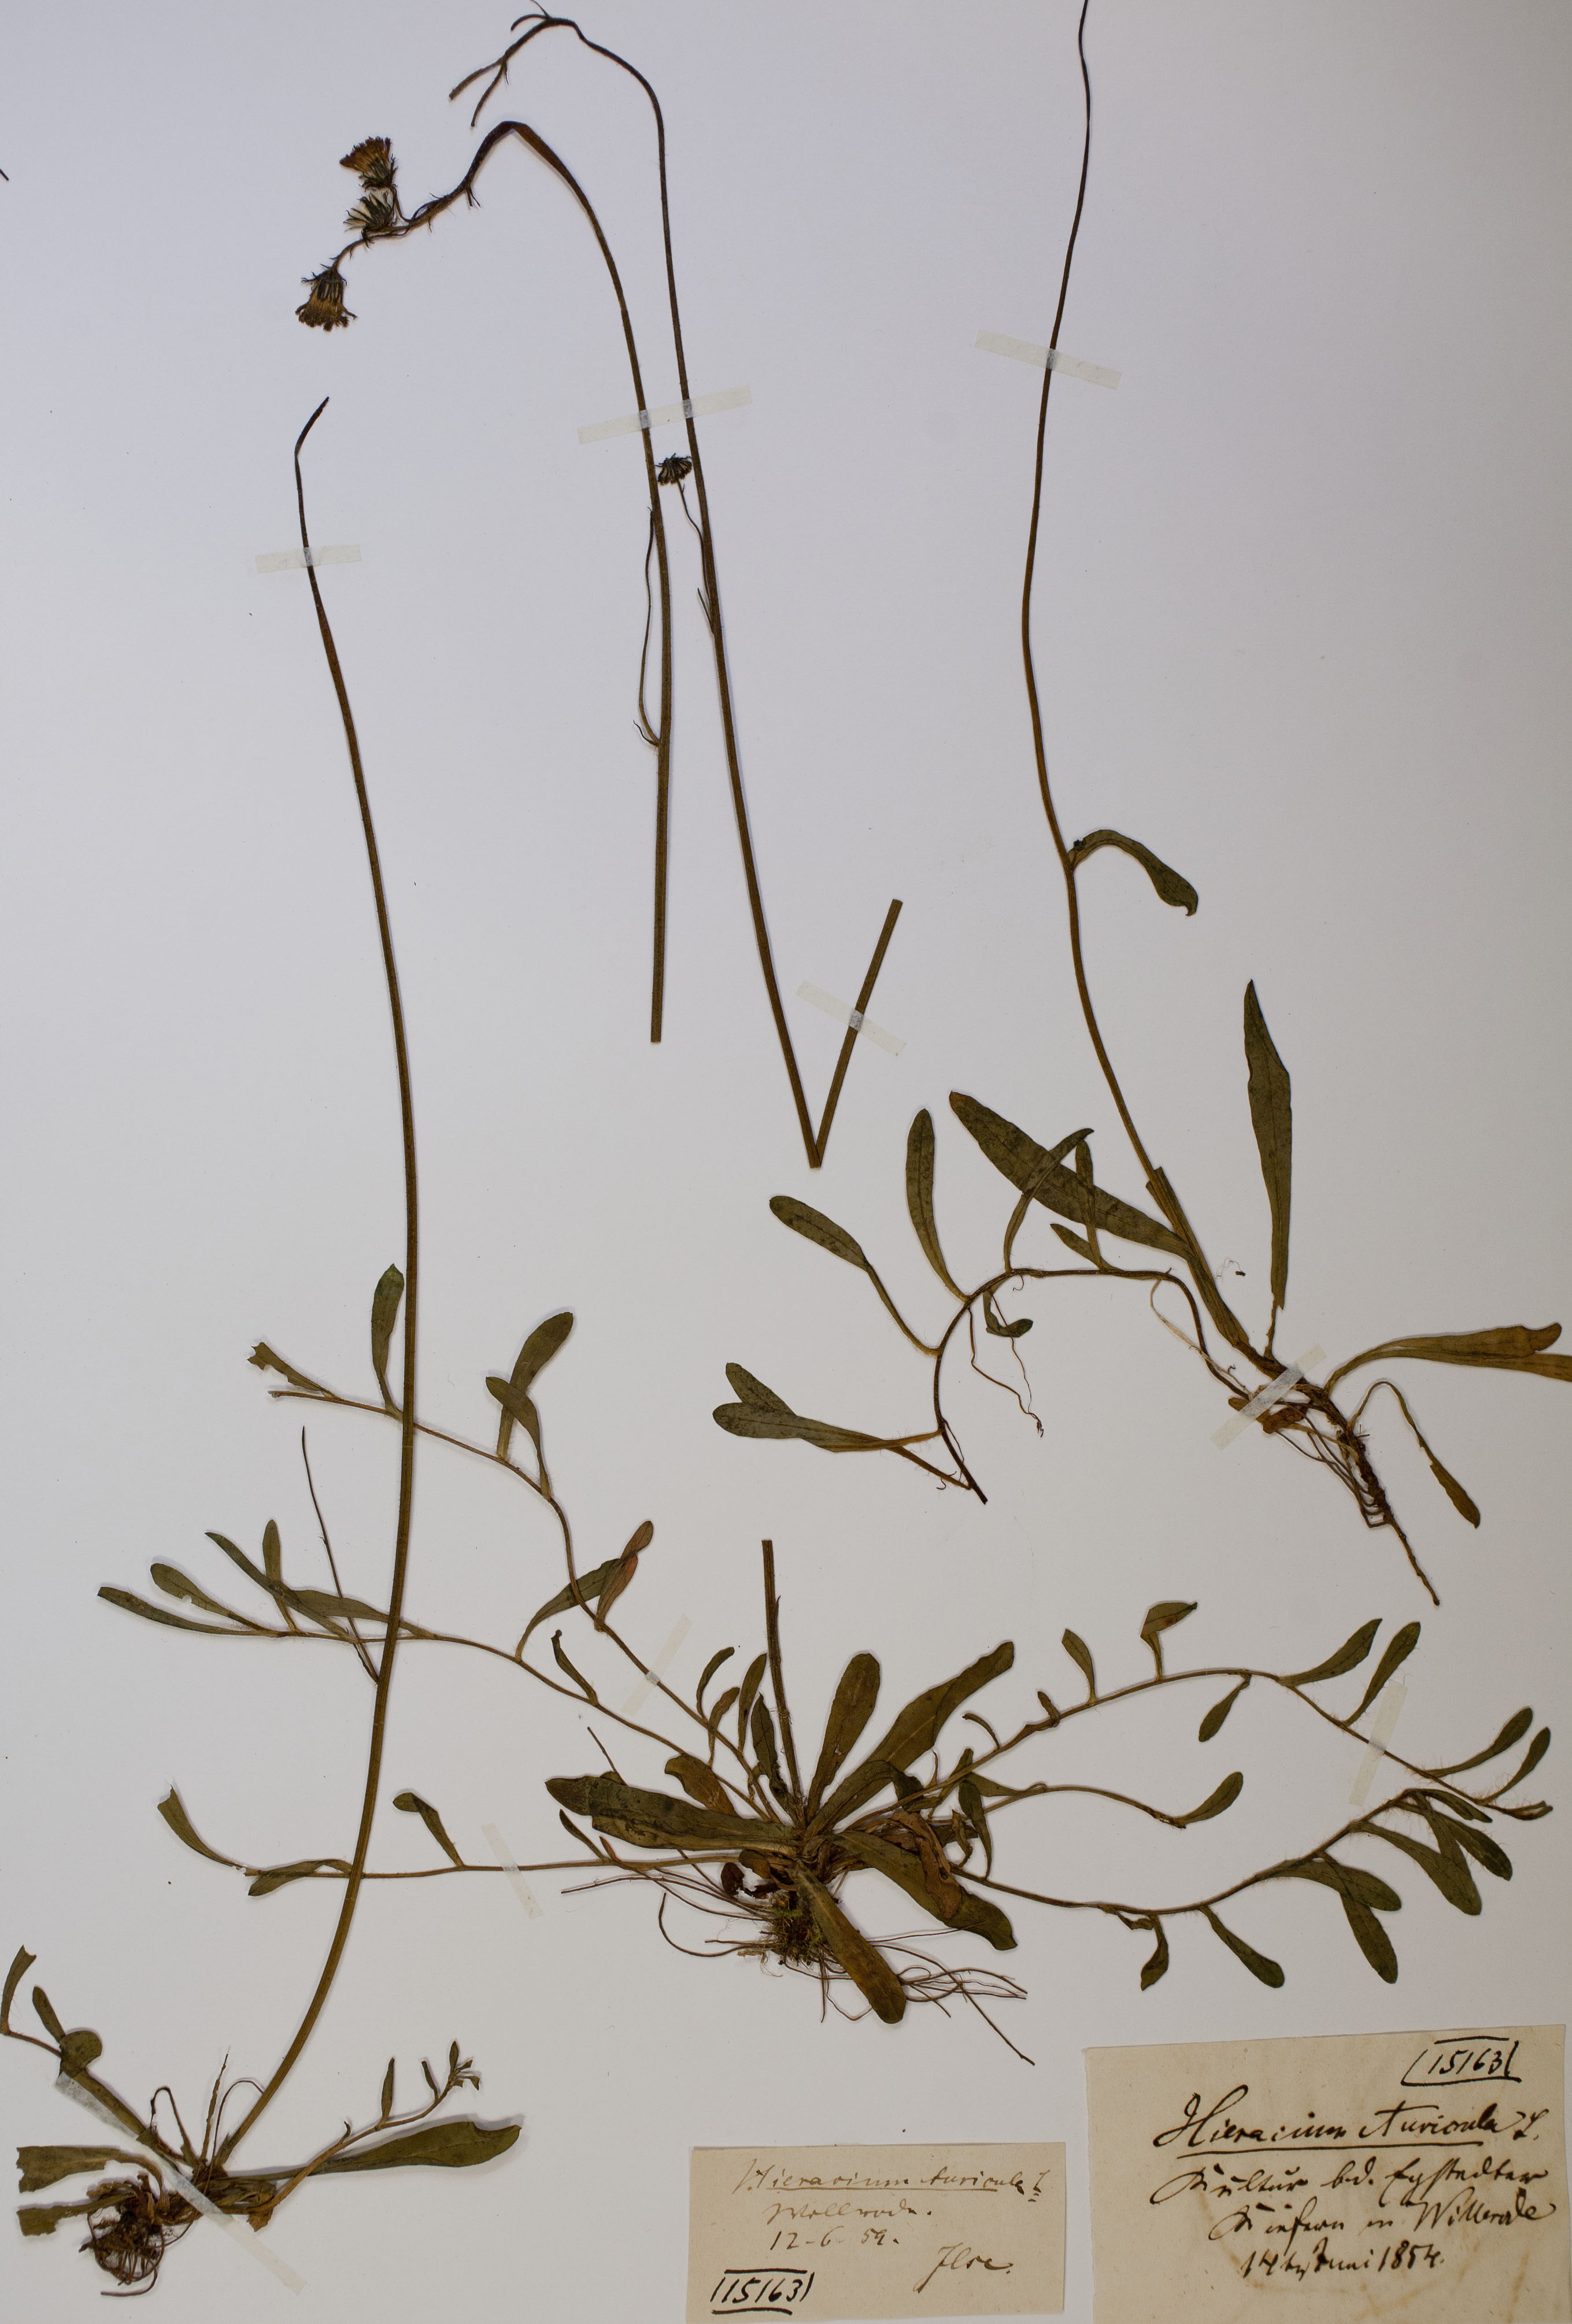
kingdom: Plantae
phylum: Tracheophyta
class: Magnoliopsida
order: Asterales
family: Asteraceae
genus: Pilosella
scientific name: Pilosella floribunda
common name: Glaucous hawkweed
